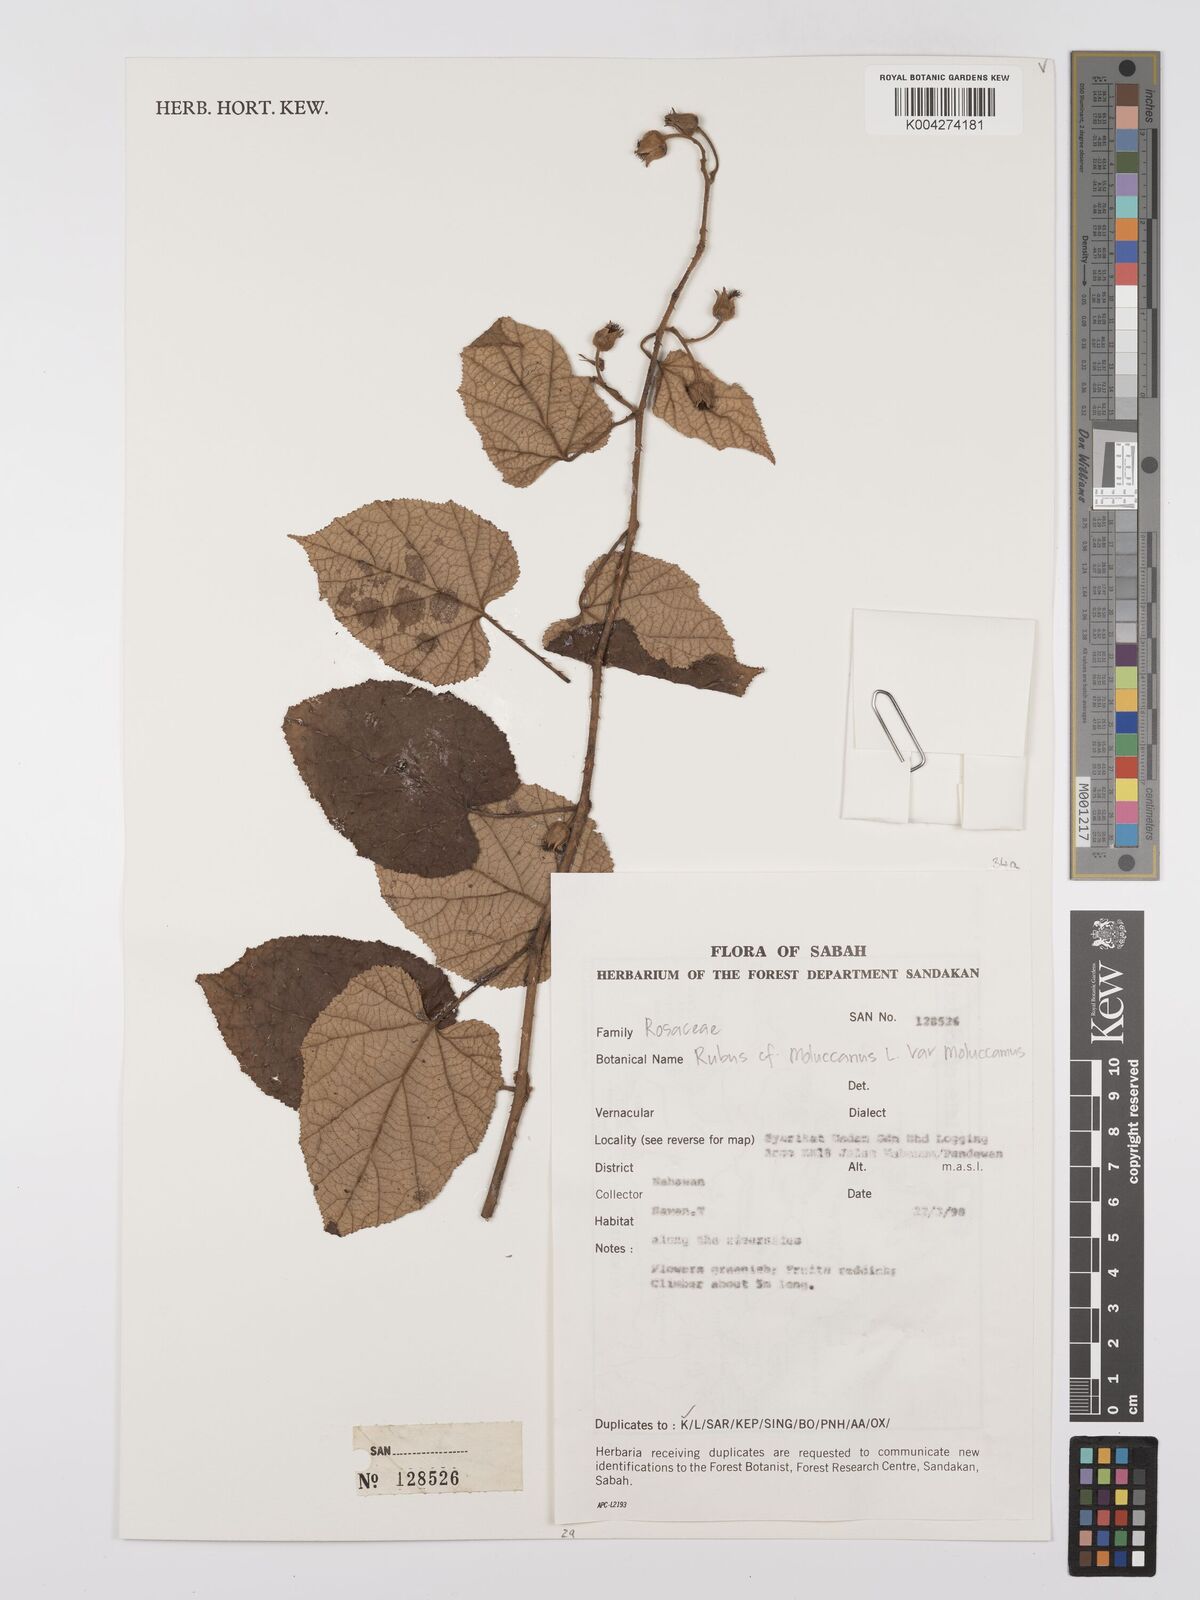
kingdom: Plantae
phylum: Tracheophyta
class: Magnoliopsida
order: Rosales
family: Rosaceae
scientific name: Rosaceae
